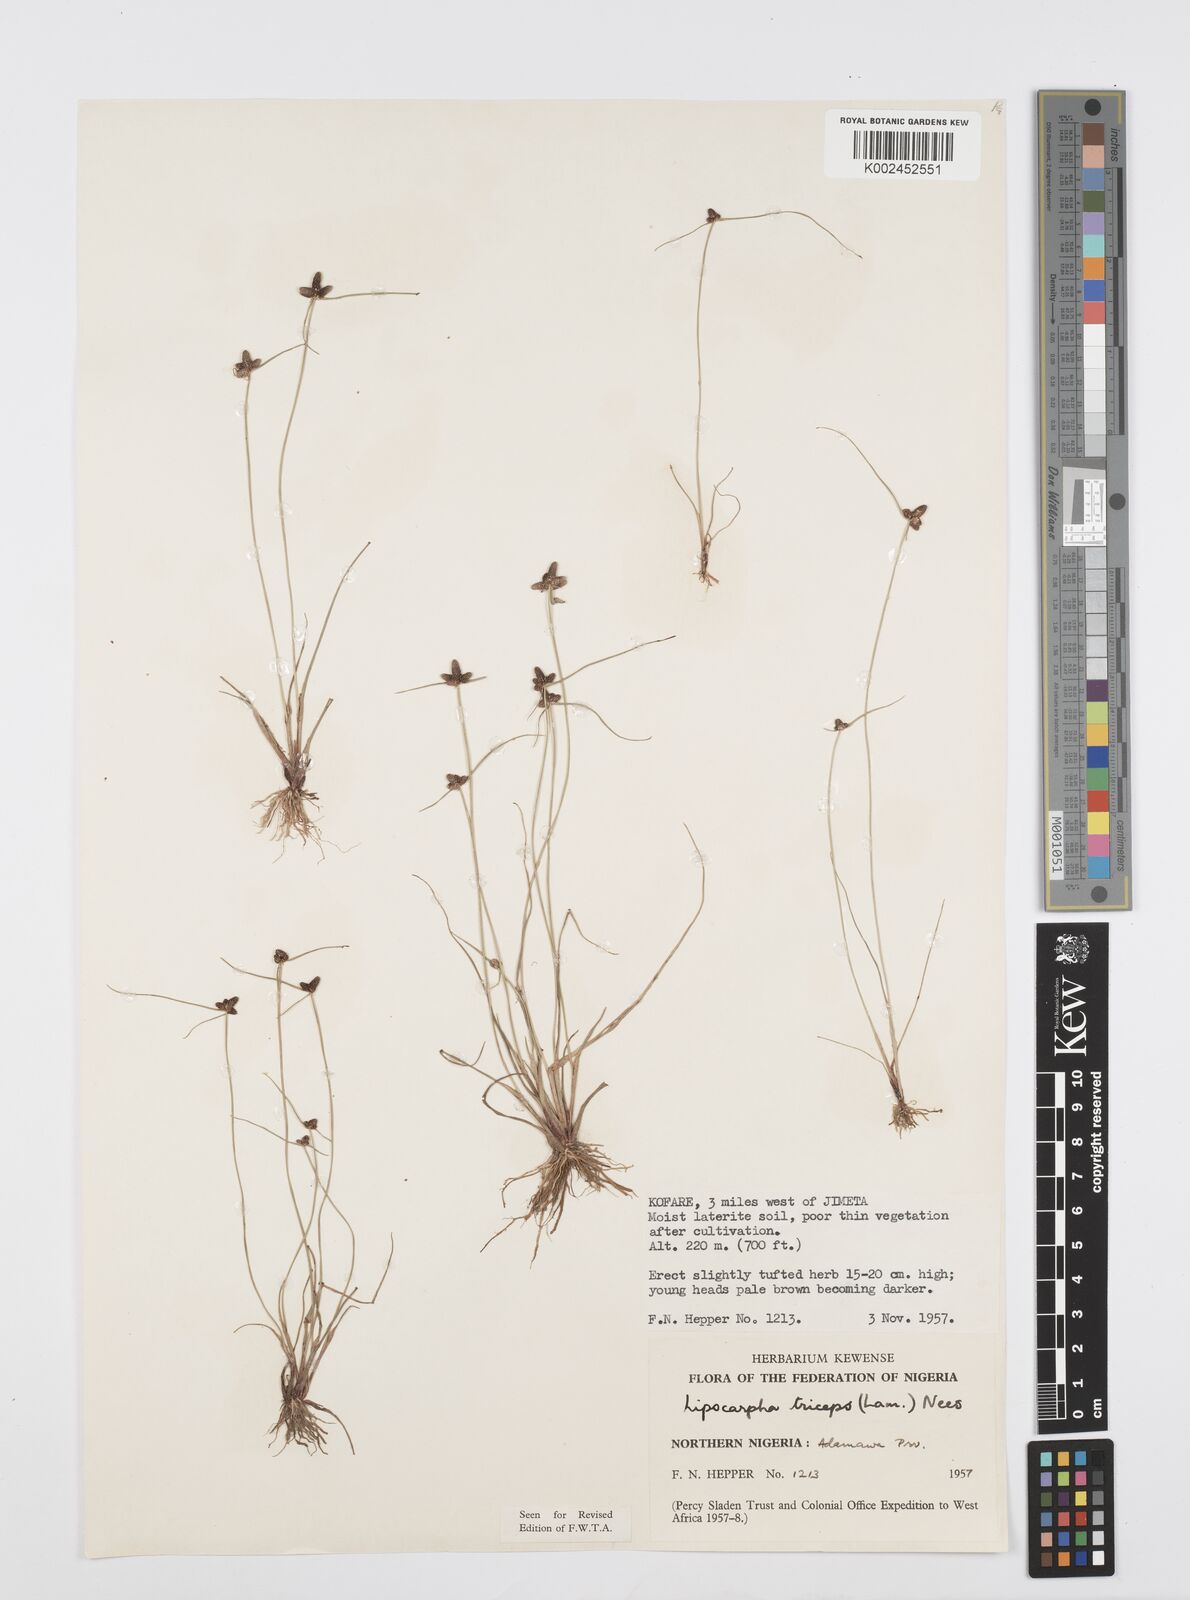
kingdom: Plantae
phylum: Tracheophyta
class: Liliopsida
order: Poales
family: Cyperaceae
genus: Cyperus
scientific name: Cyperus filiformis
